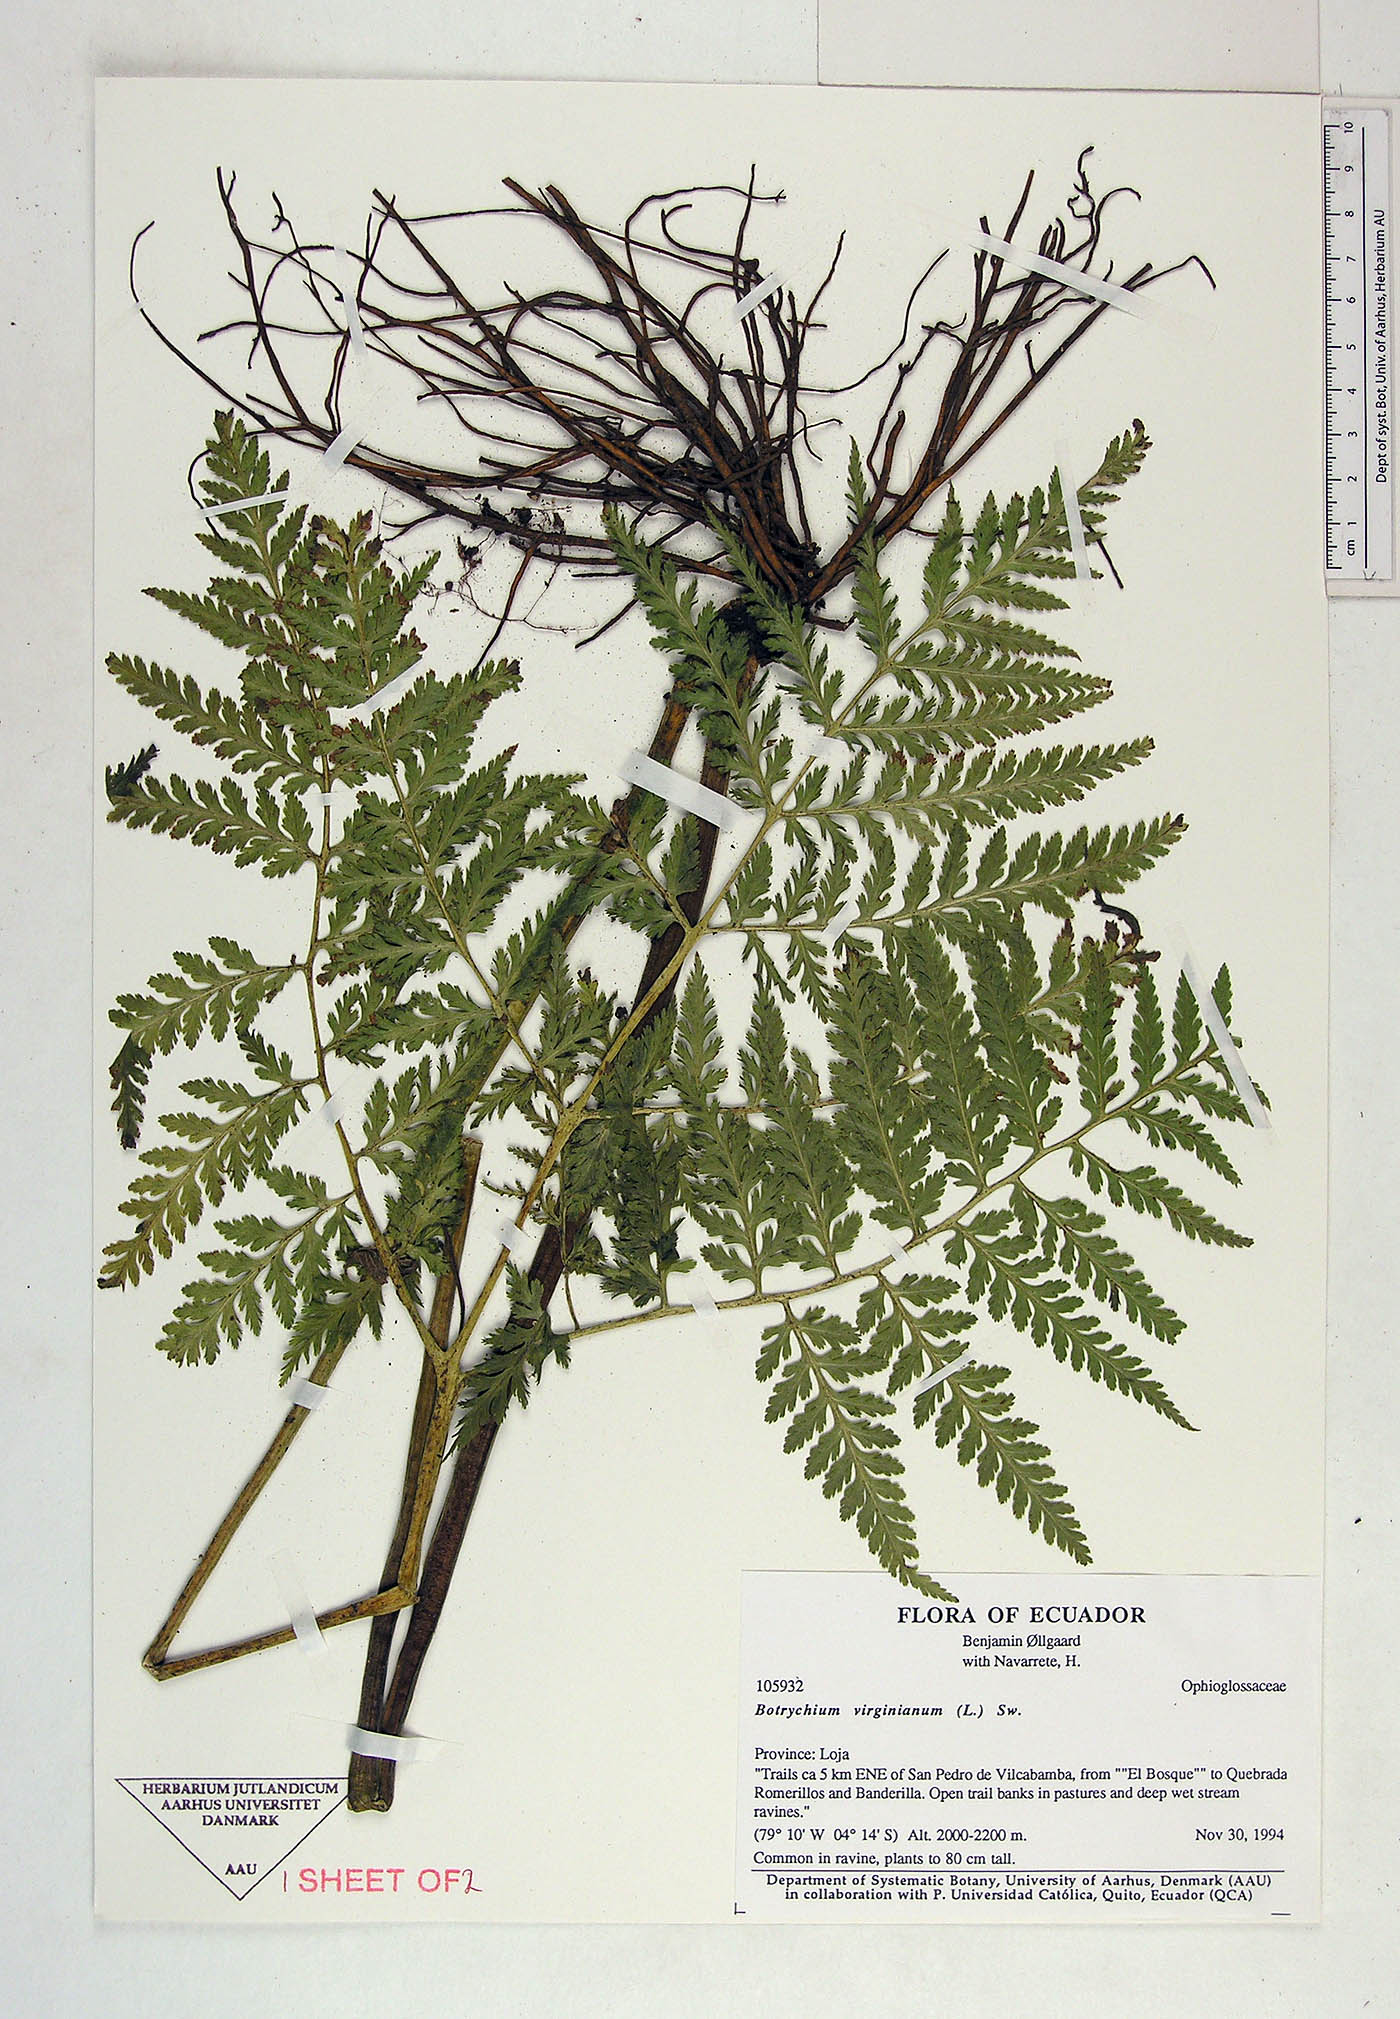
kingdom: Plantae
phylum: Tracheophyta
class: Polypodiopsida
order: Ophioglossales
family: Ophioglossaceae
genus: Botrypus
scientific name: Botrypus virginianus
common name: Common grapefern
